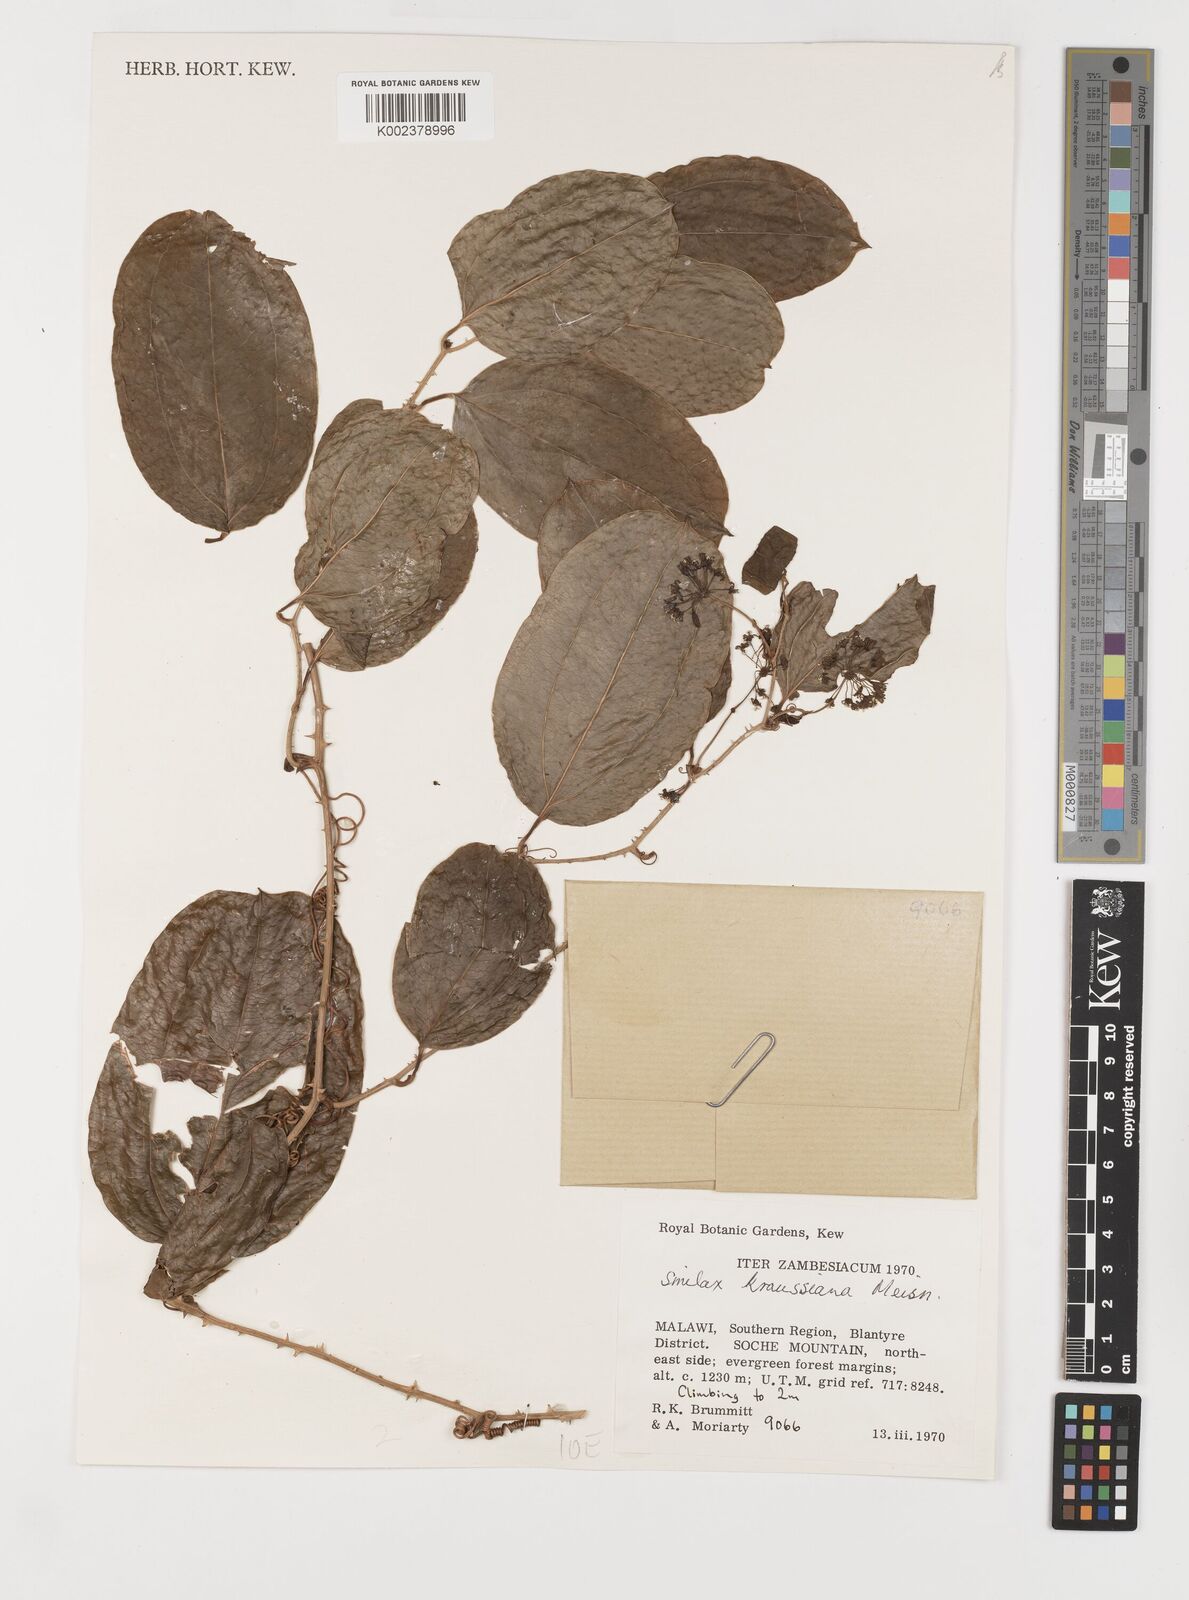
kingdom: Plantae
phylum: Tracheophyta
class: Liliopsida
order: Liliales
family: Smilacaceae
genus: Smilax
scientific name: Smilax anceps
